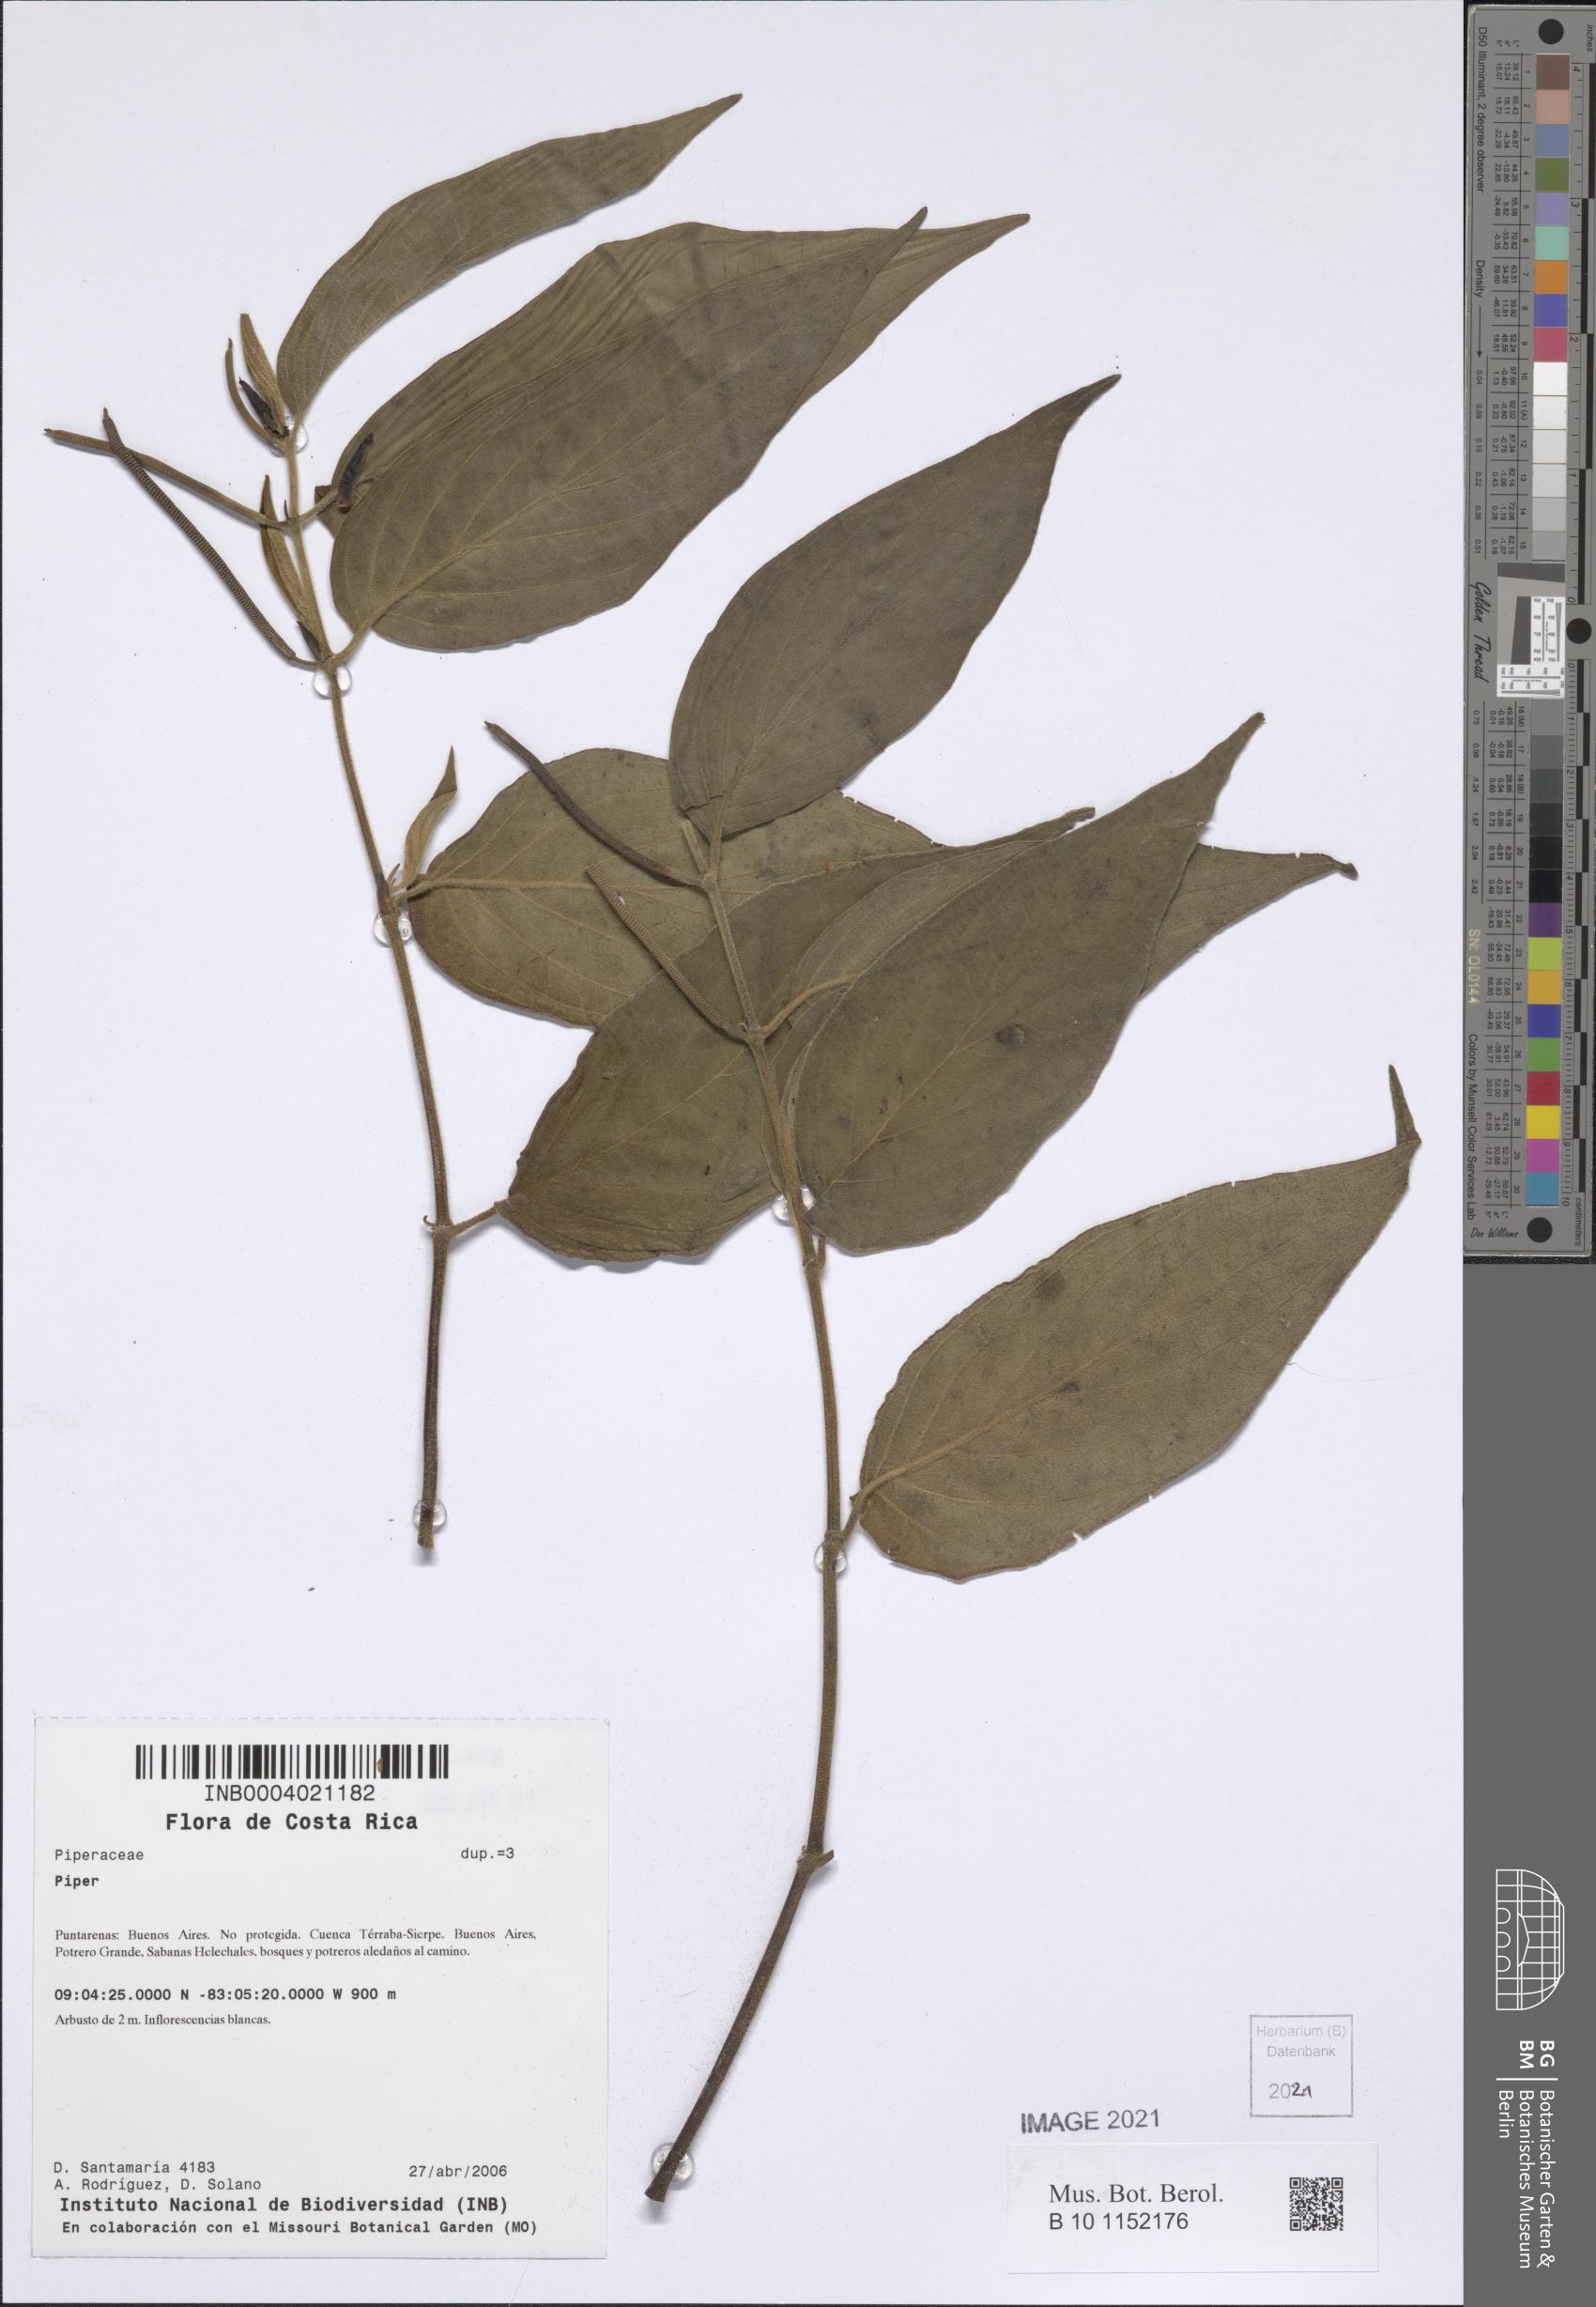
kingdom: Plantae
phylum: Tracheophyta
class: Magnoliopsida
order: Piperales
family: Piperaceae
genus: Piper
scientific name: Piper
